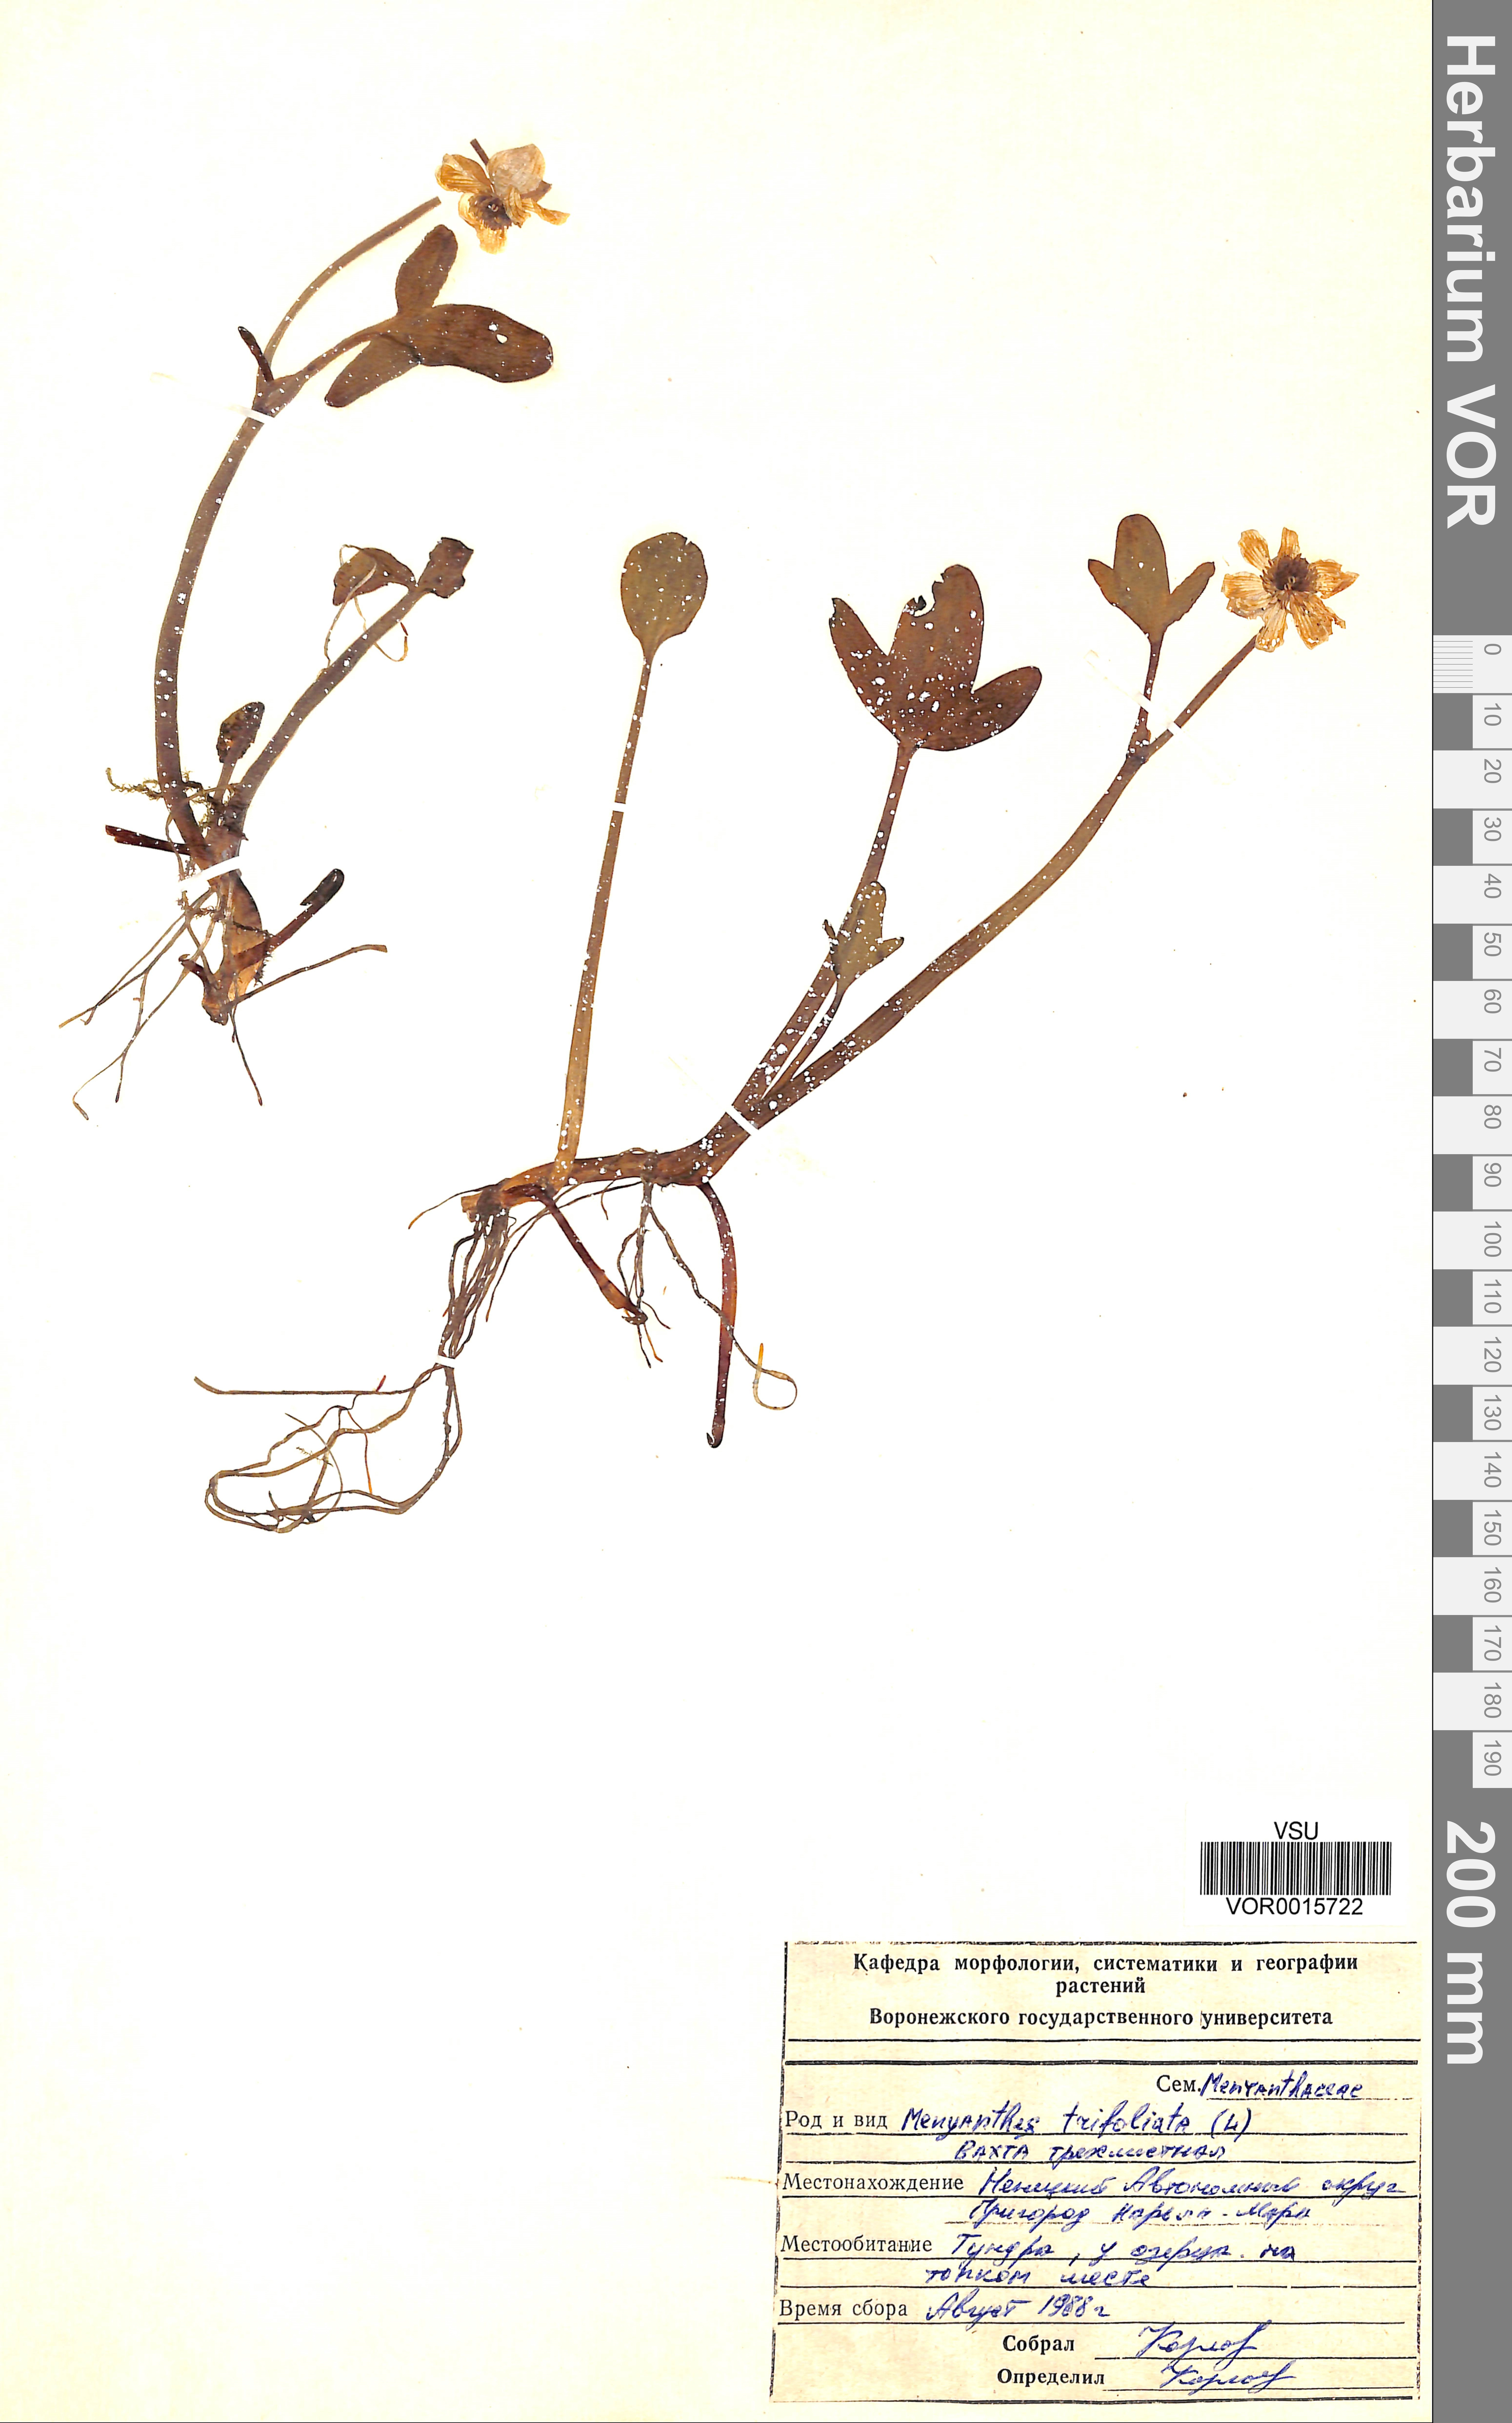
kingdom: Plantae
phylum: Tracheophyta
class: Magnoliopsida
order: Asterales
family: Menyanthaceae
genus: Menyanthes
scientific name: Menyanthes trifoliata
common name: Bogbean
